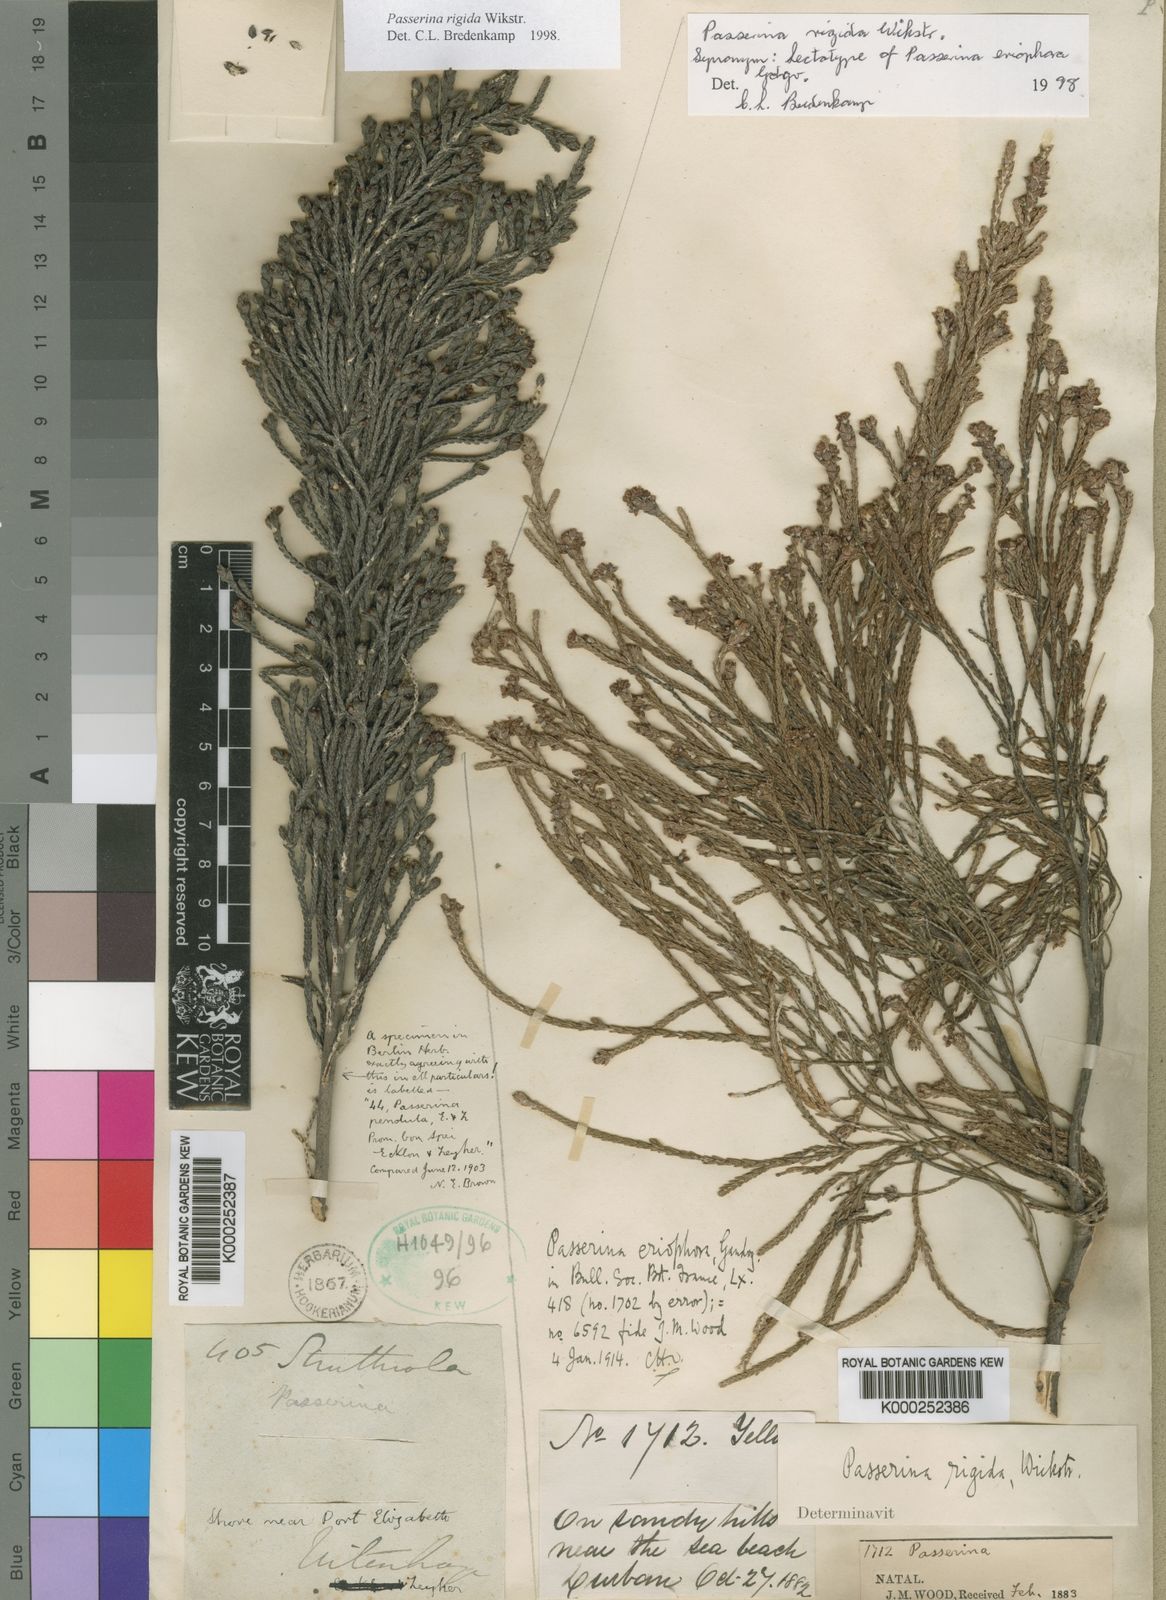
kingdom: Plantae
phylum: Tracheophyta
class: Magnoliopsida
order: Malvales
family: Thymelaeaceae
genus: Passerina
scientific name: Passerina rigida
